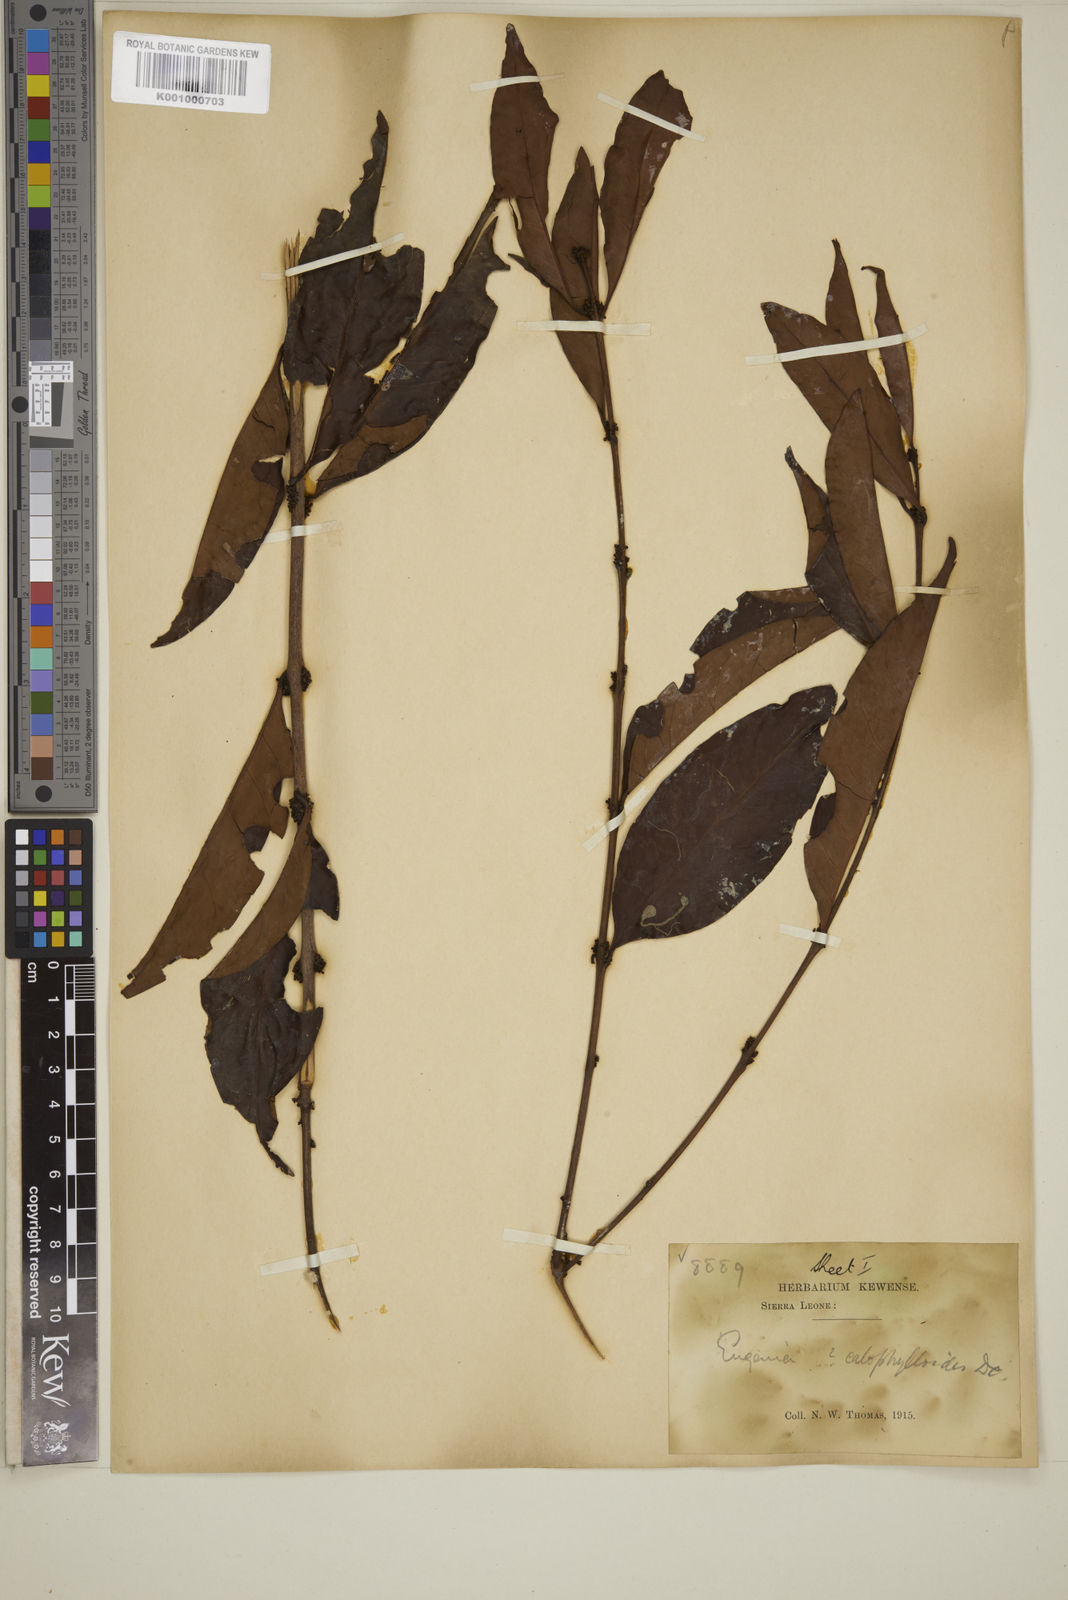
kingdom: Plantae
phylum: Tracheophyta
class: Magnoliopsida
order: Myrtales
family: Myrtaceae
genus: Eugenia
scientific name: Eugenia calophylloides
